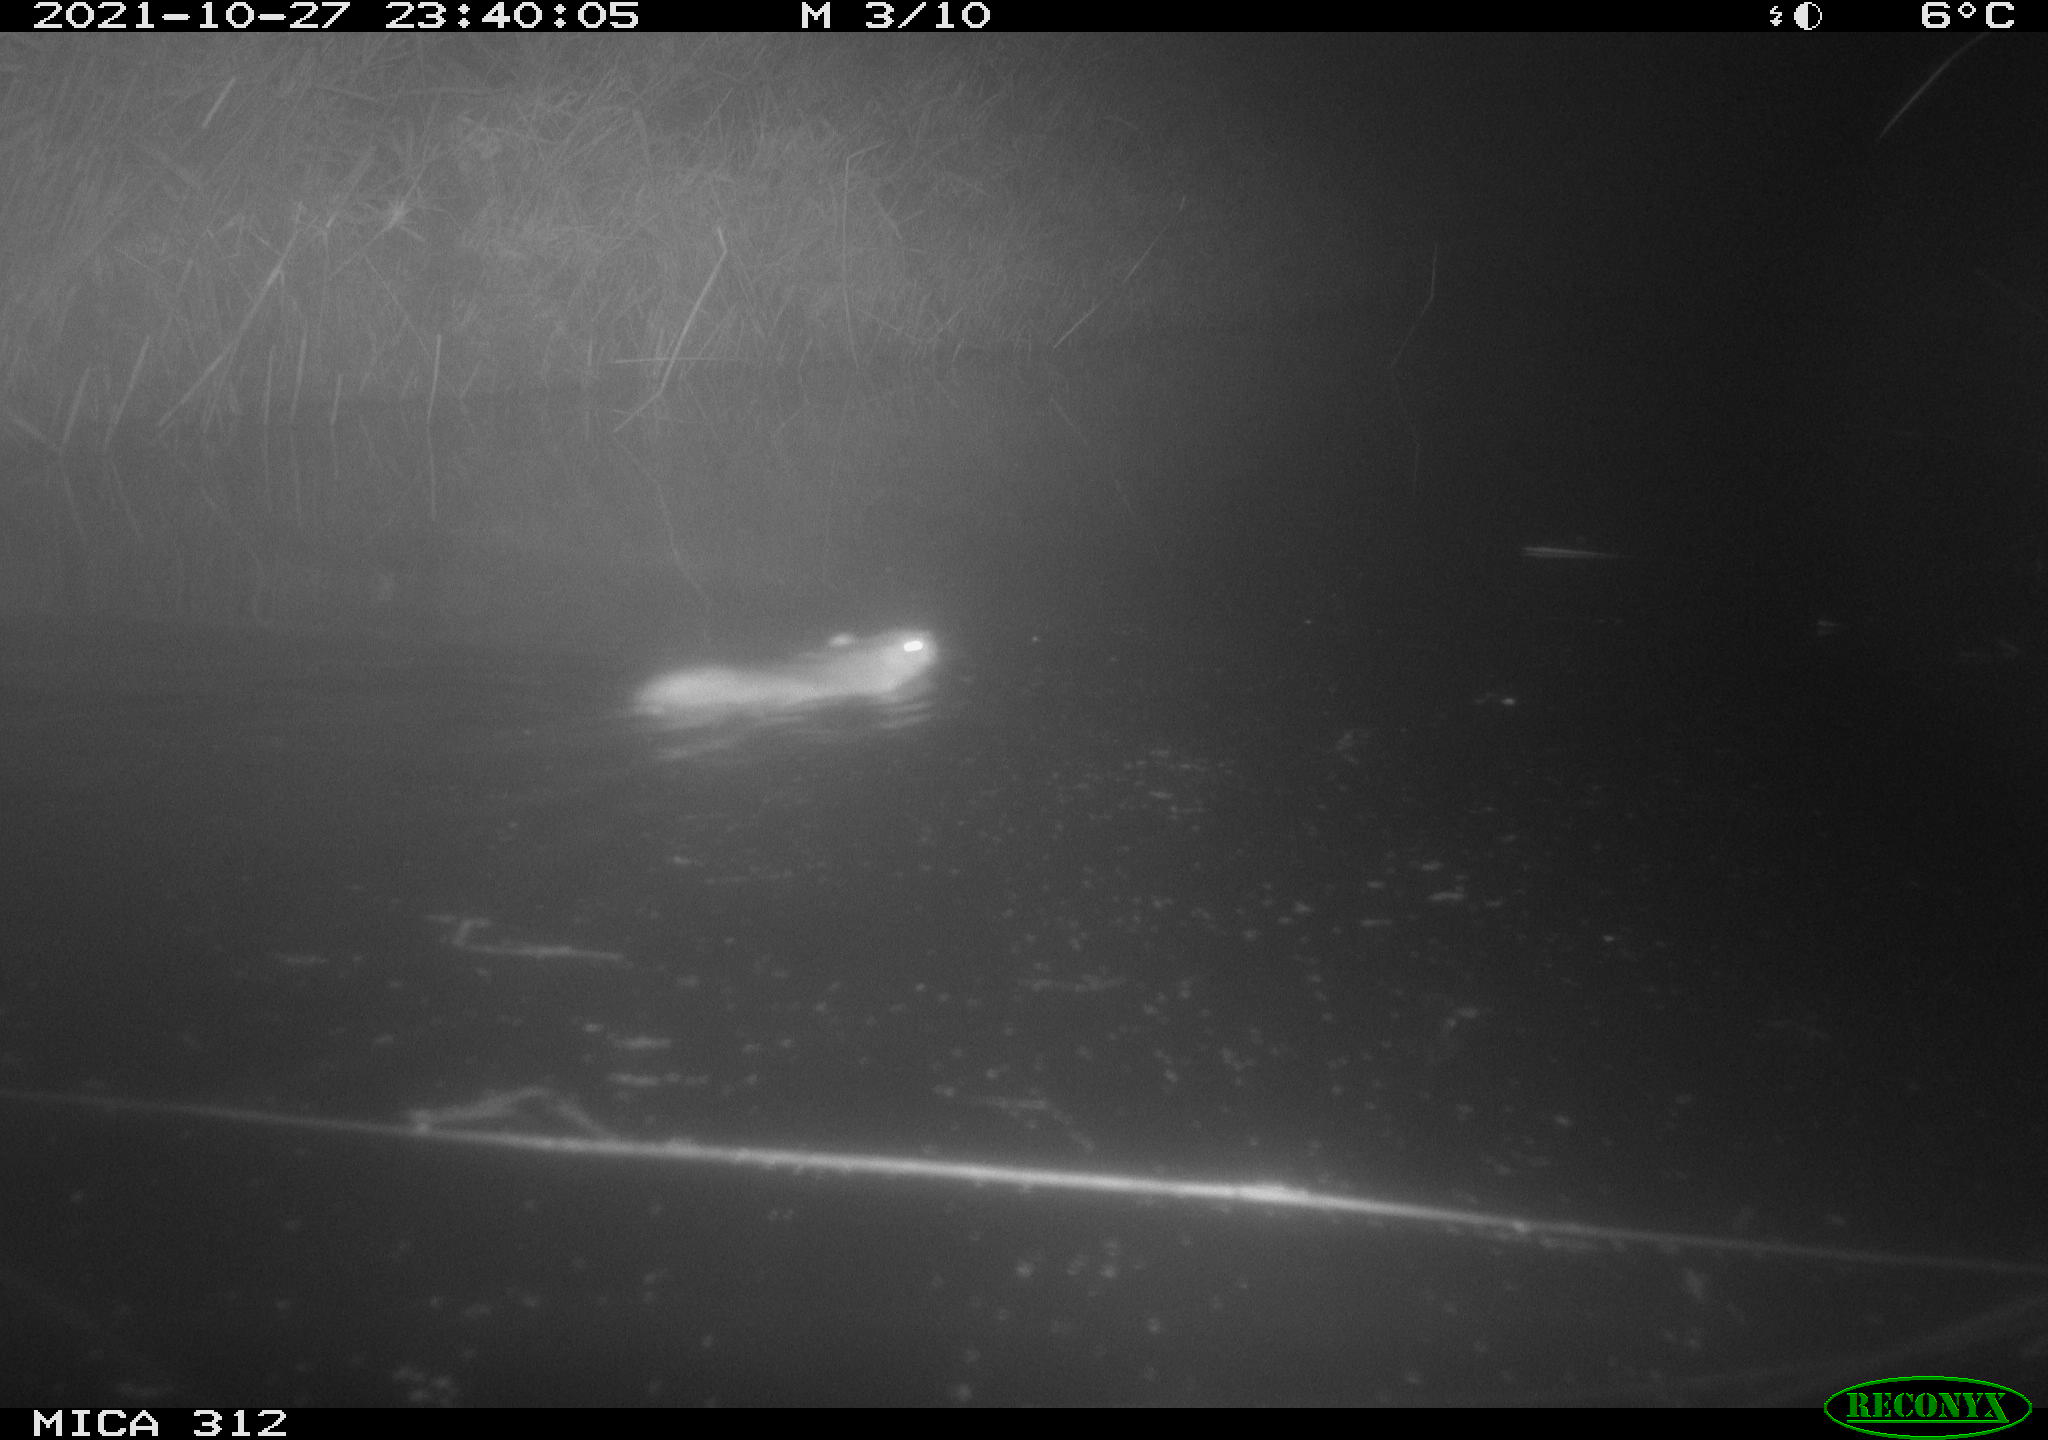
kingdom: Animalia
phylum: Chordata
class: Mammalia
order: Rodentia
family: Muridae
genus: Rattus
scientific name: Rattus norvegicus
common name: Brown rat
